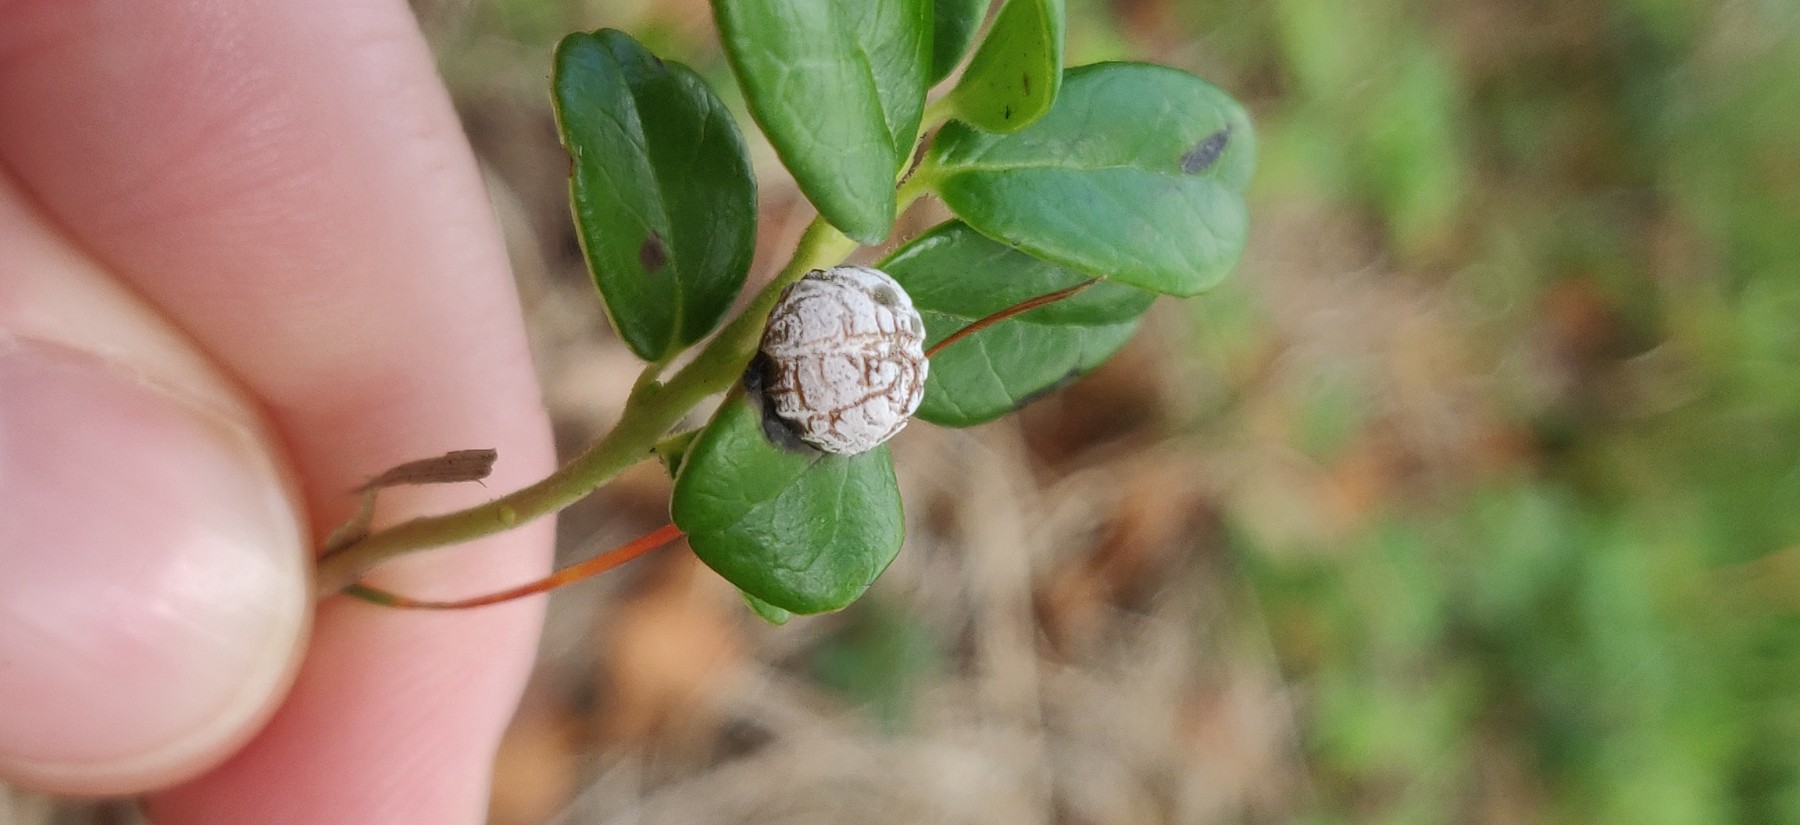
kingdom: Fungi
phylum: Basidiomycota
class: Exobasidiomycetes
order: Exobasidiales
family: Exobasidiaceae
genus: Exobasidium
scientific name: Exobasidium vaccinii
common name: tyttebærblad-bøllesvamp
